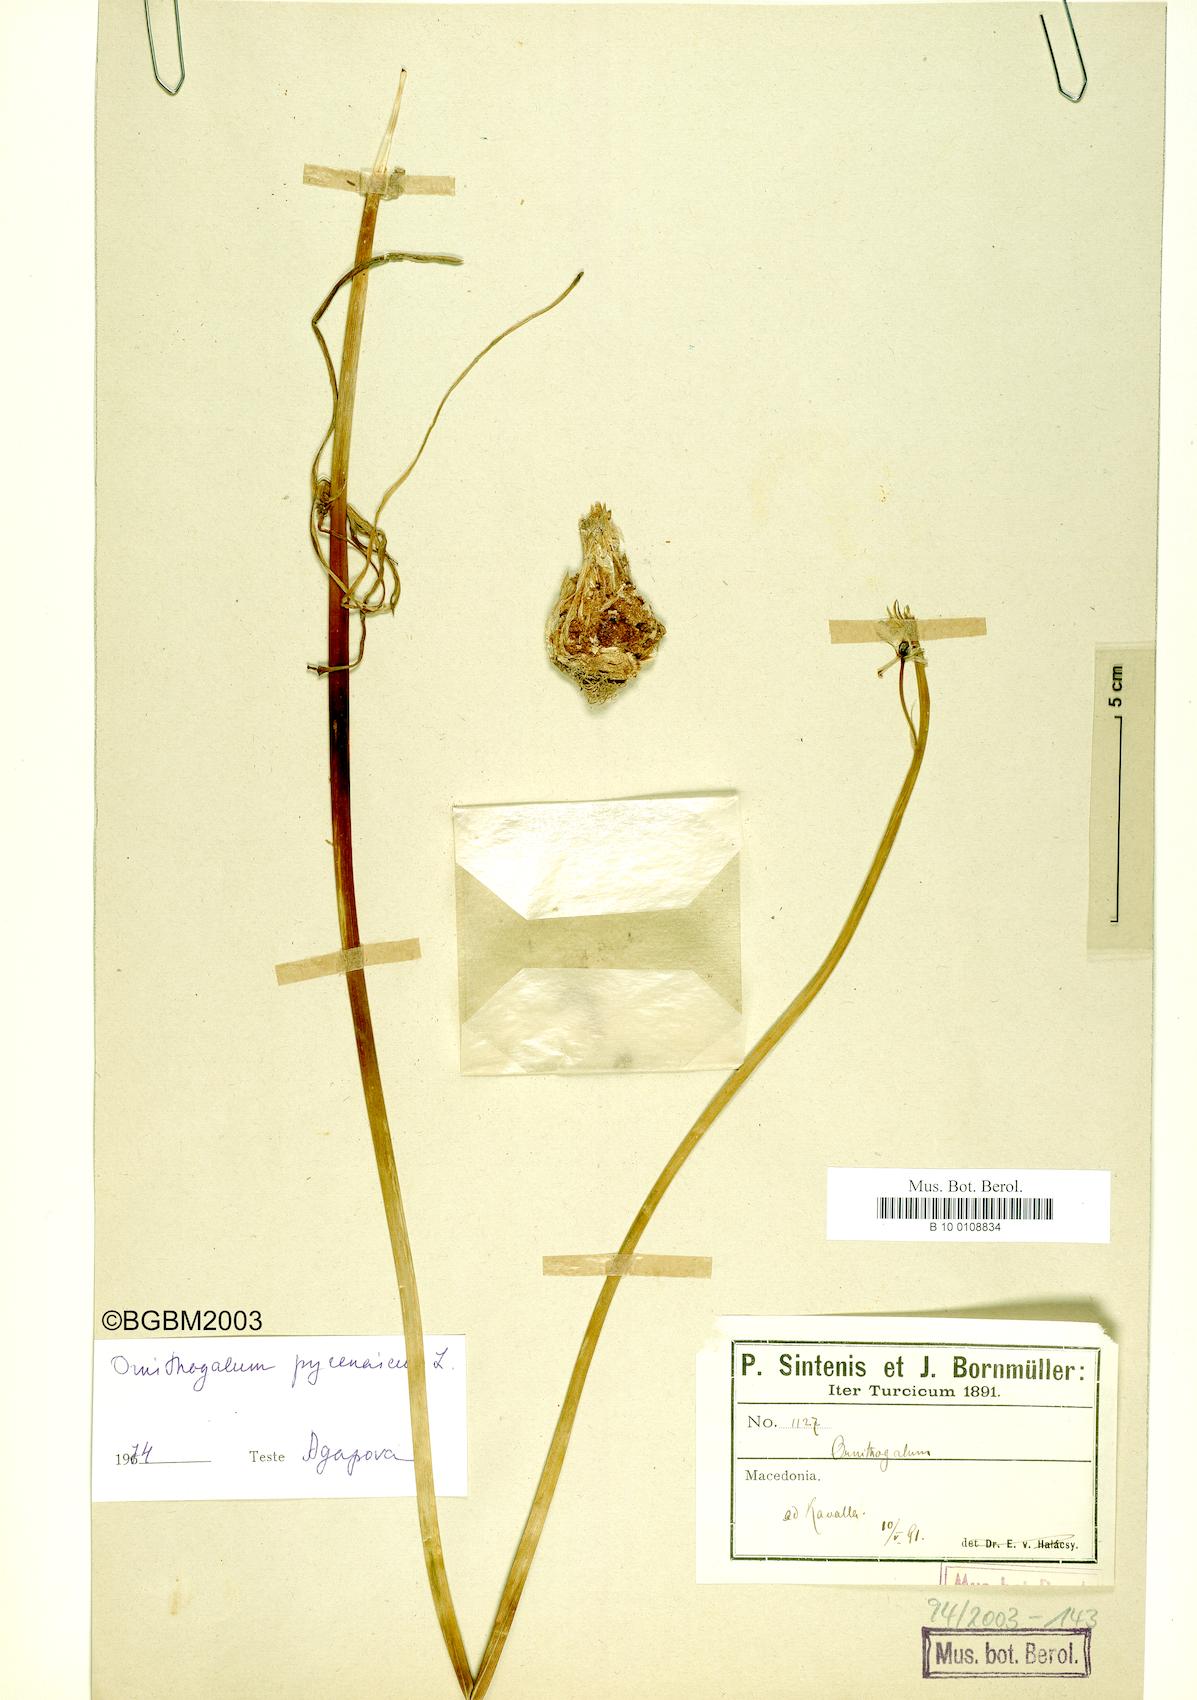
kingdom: Plantae
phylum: Tracheophyta
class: Liliopsida
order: Asparagales
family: Asparagaceae
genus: Ornithogalum
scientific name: Ornithogalum pyrenaicum
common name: Spiked star-of-bethlehem
